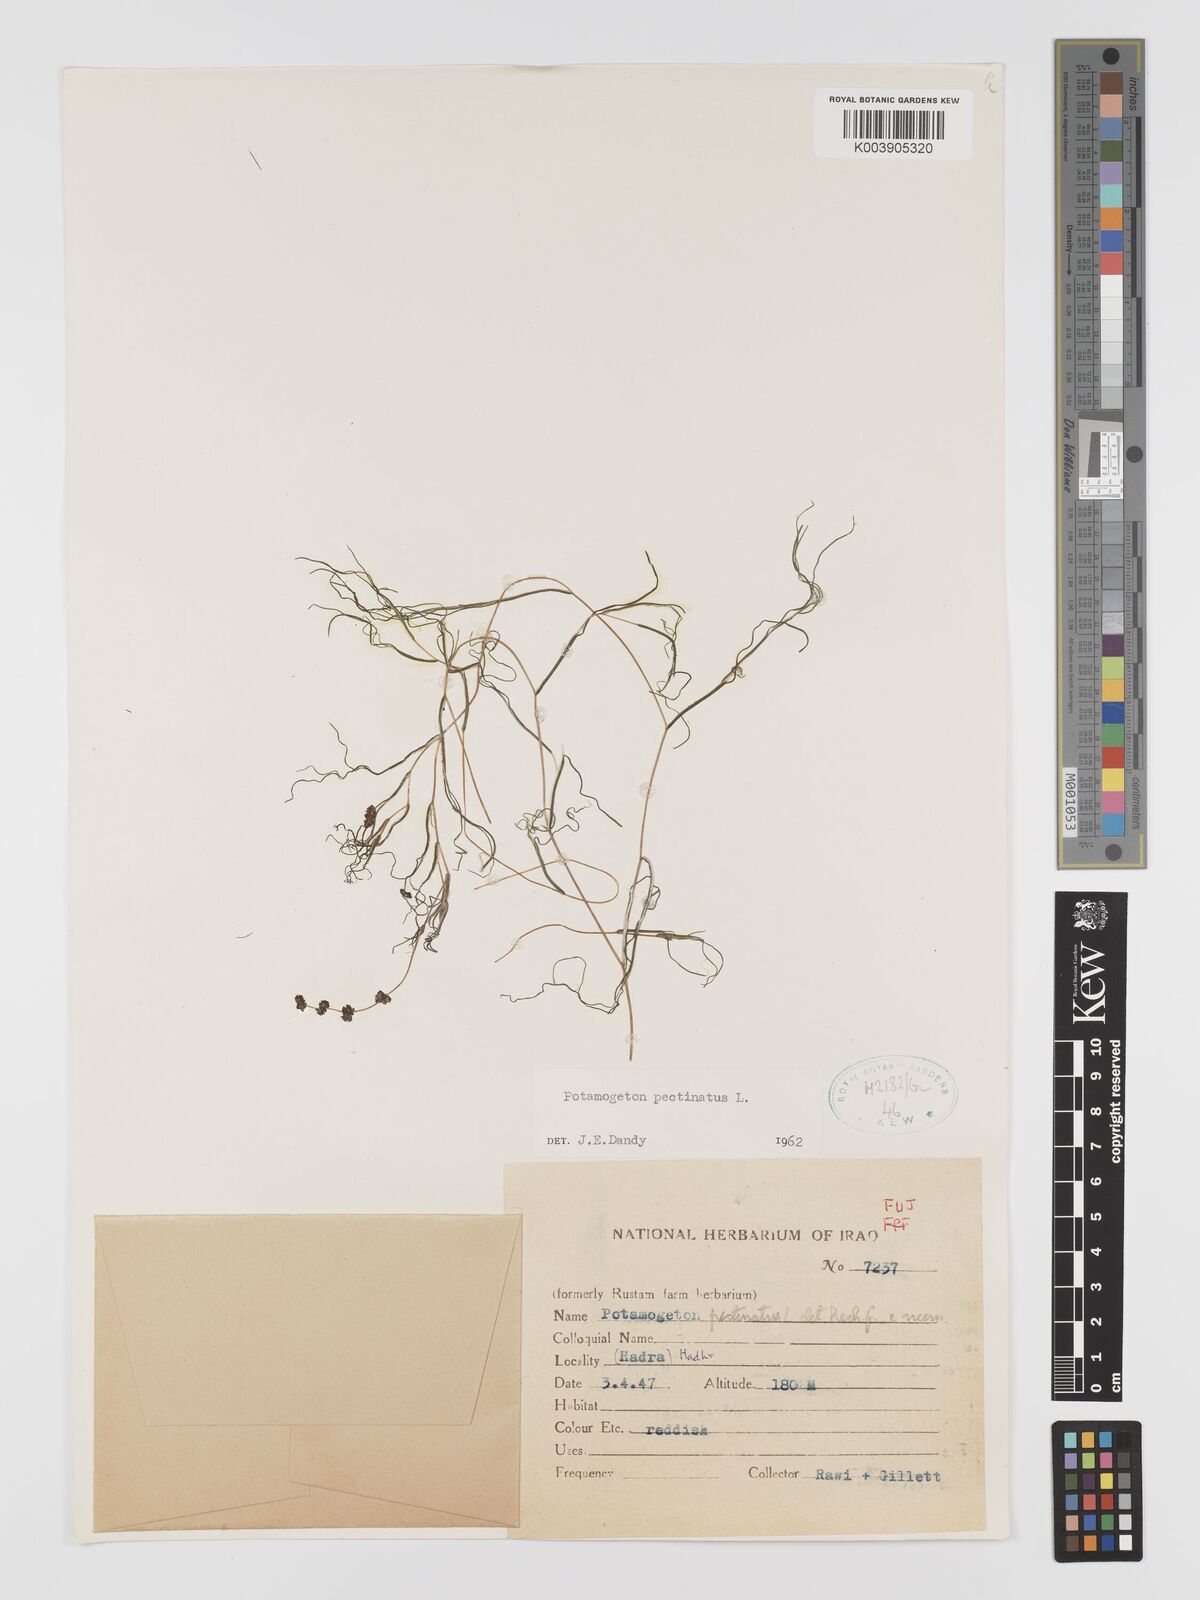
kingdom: Plantae
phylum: Tracheophyta
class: Liliopsida
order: Alismatales
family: Potamogetonaceae
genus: Stuckenia
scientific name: Stuckenia pectinata
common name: Sago pondweed
